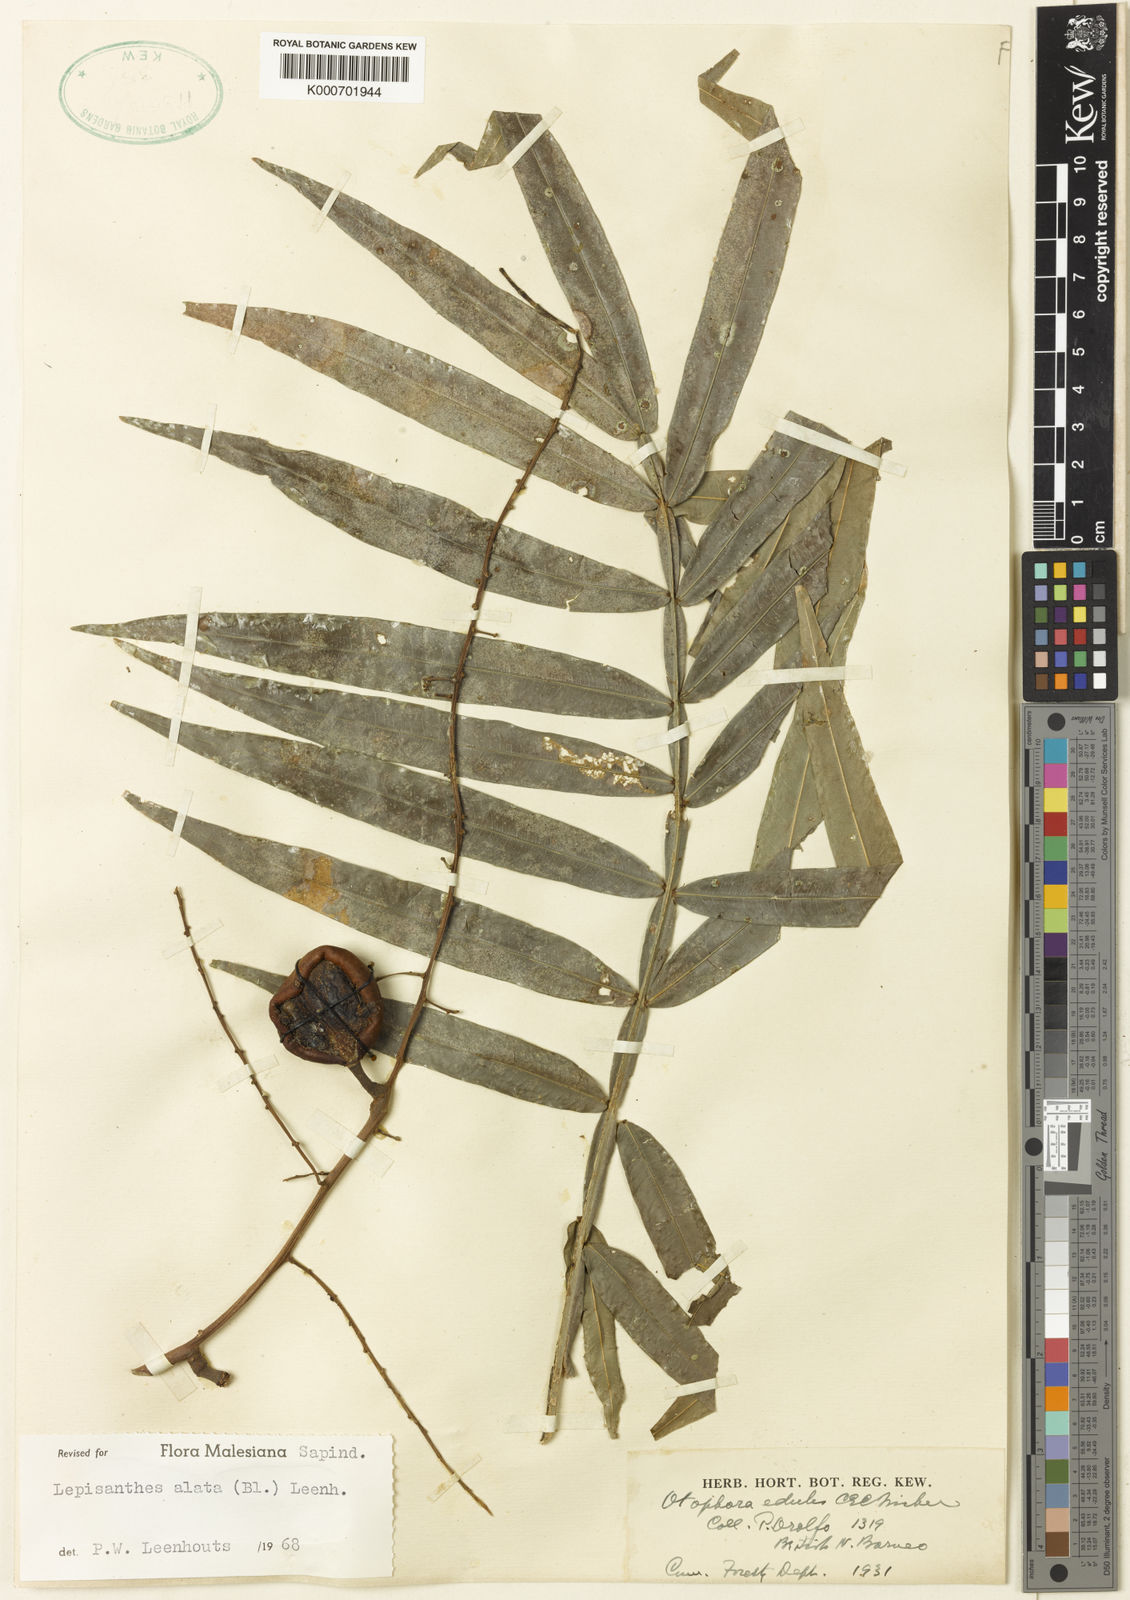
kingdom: Plantae
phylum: Tracheophyta
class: Magnoliopsida
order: Sapindales
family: Sapindaceae
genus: Lepisanthes
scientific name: Lepisanthes alata
